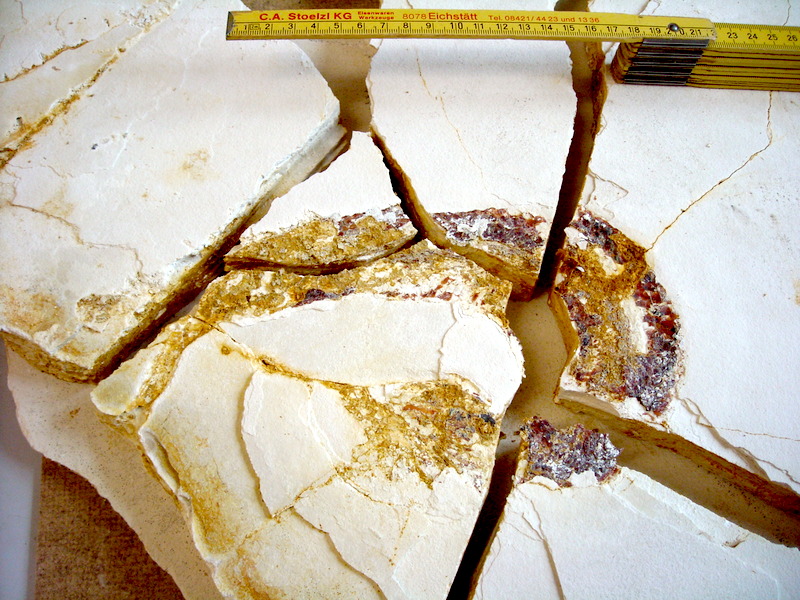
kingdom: Animalia
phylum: Chordata
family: Aspidorhynchidae
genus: Aspidorhynchus
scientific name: Aspidorhynchus sanzenbacheri
